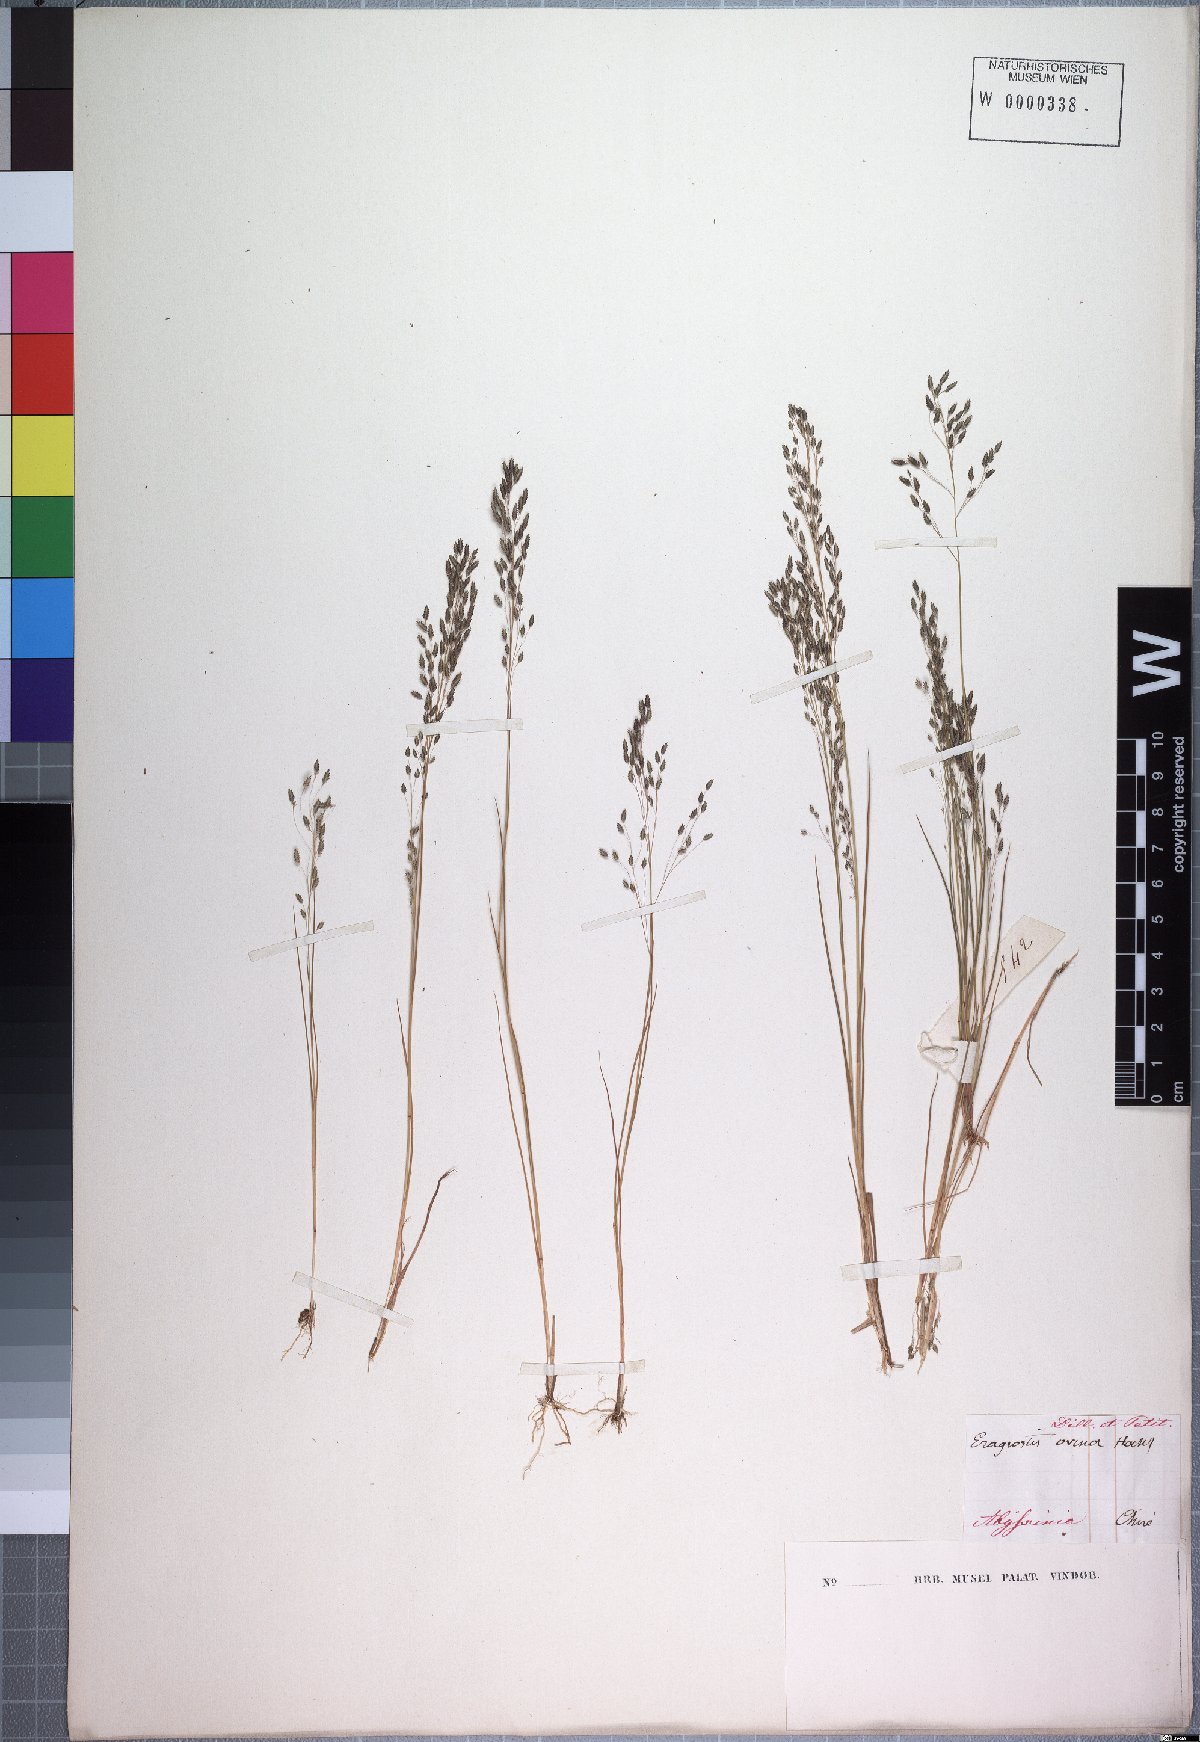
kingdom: Plantae
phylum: Tracheophyta
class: Liliopsida
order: Poales
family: Poaceae
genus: Eragrostis
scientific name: Eragrostis gangetica
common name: Slimflower lovegrass
